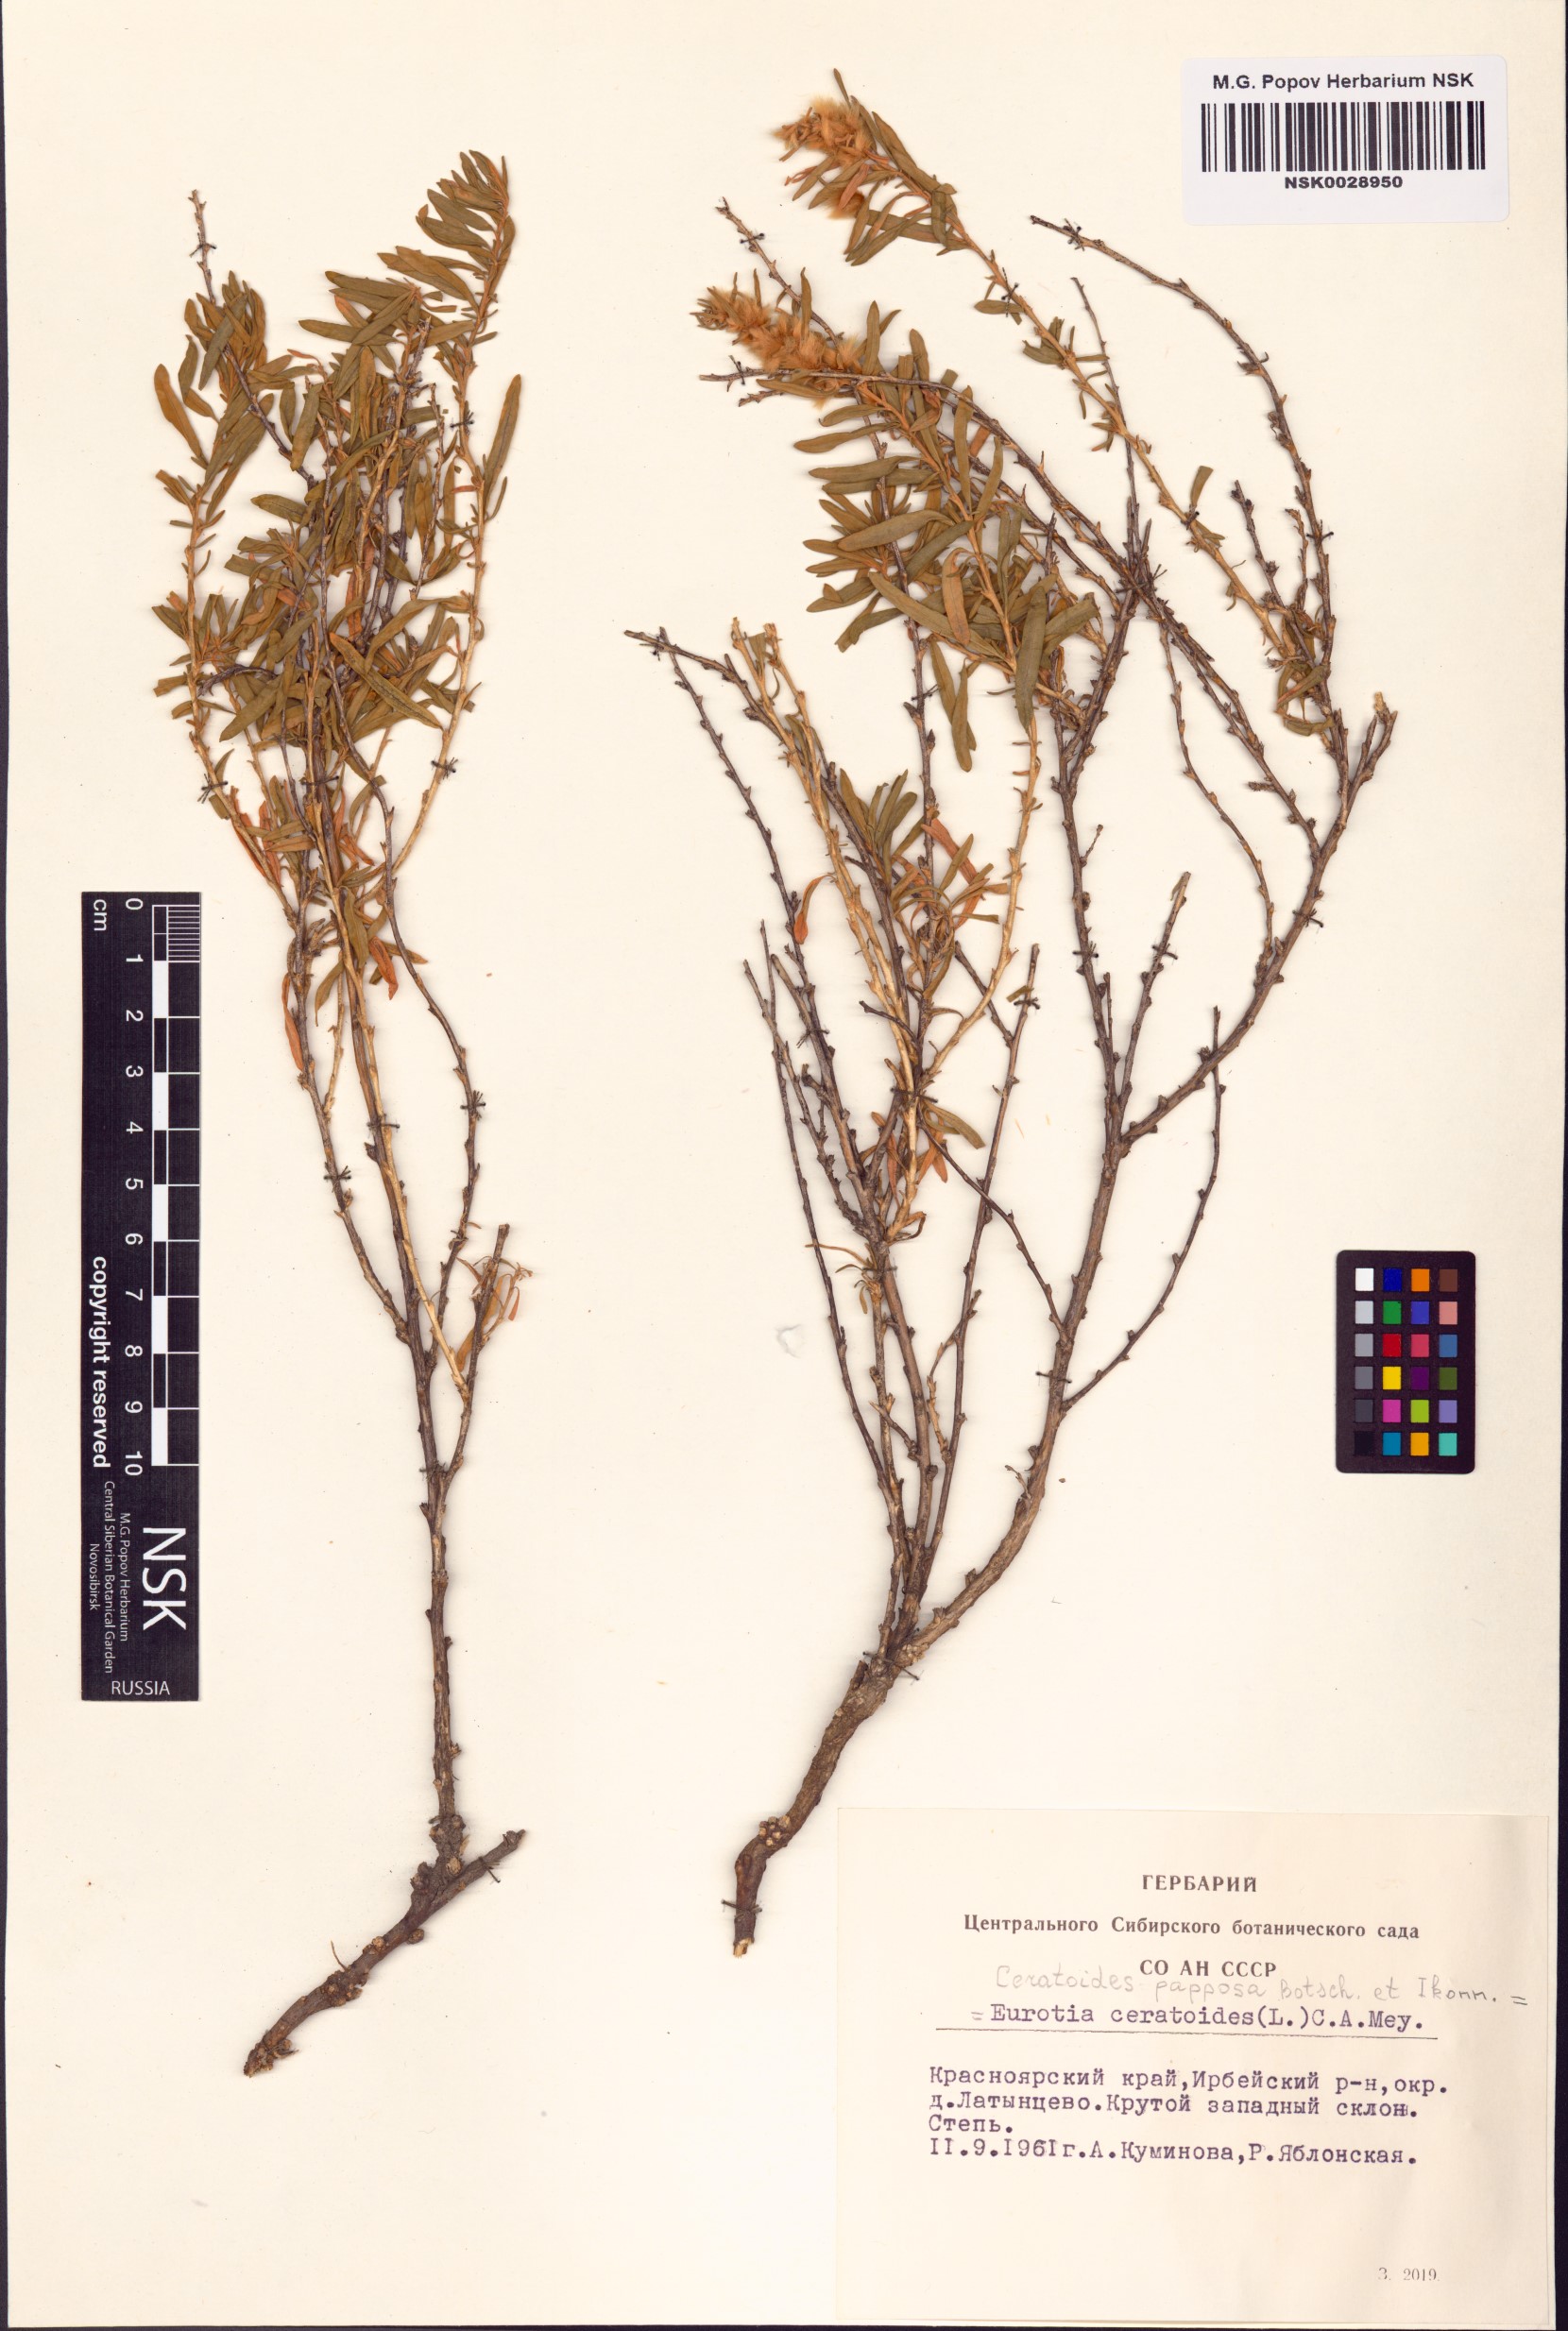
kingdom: Plantae
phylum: Tracheophyta
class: Magnoliopsida
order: Caryophyllales
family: Amaranthaceae
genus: Krascheninnikovia
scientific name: Krascheninnikovia ceratoides
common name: Pamirian winterfat
